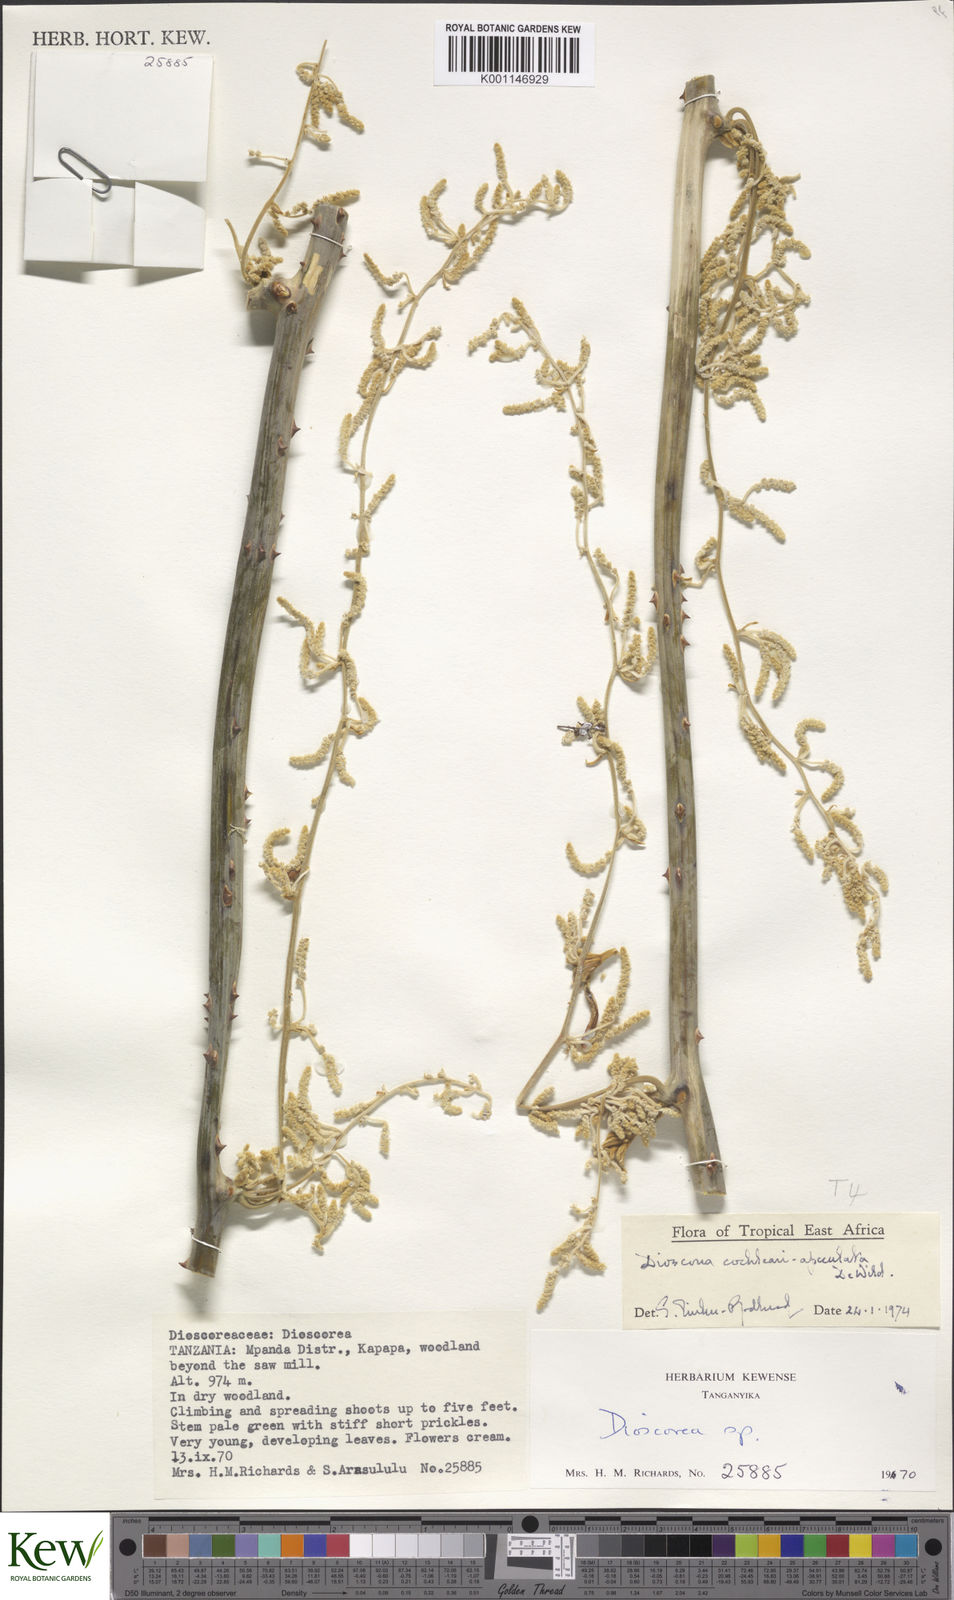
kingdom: Plantae
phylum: Tracheophyta
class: Liliopsida
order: Dioscoreales
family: Dioscoreaceae
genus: Dioscorea
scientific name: Dioscorea cochleariapiculata
